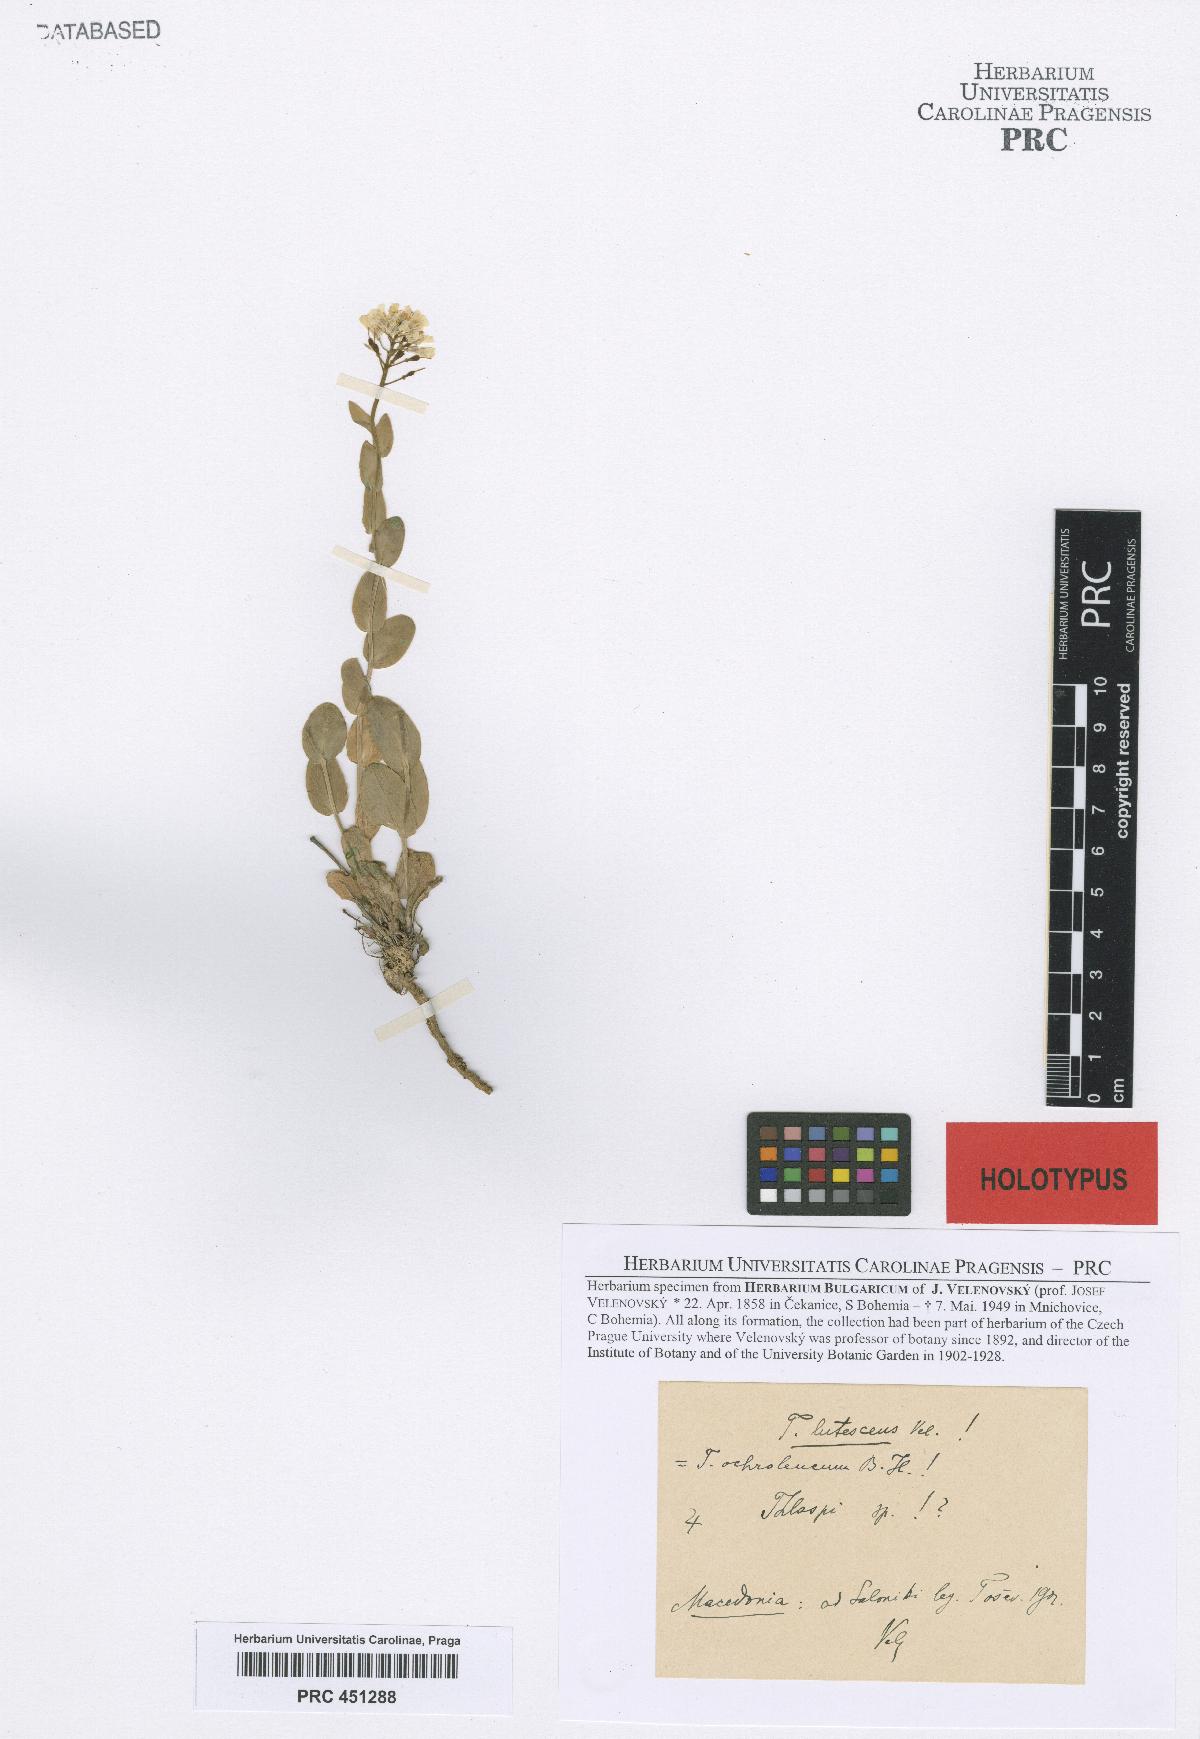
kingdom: Plantae
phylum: Tracheophyta
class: Magnoliopsida
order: Brassicales
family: Brassicaceae
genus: Noccaea
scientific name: Noccaea lutescens
